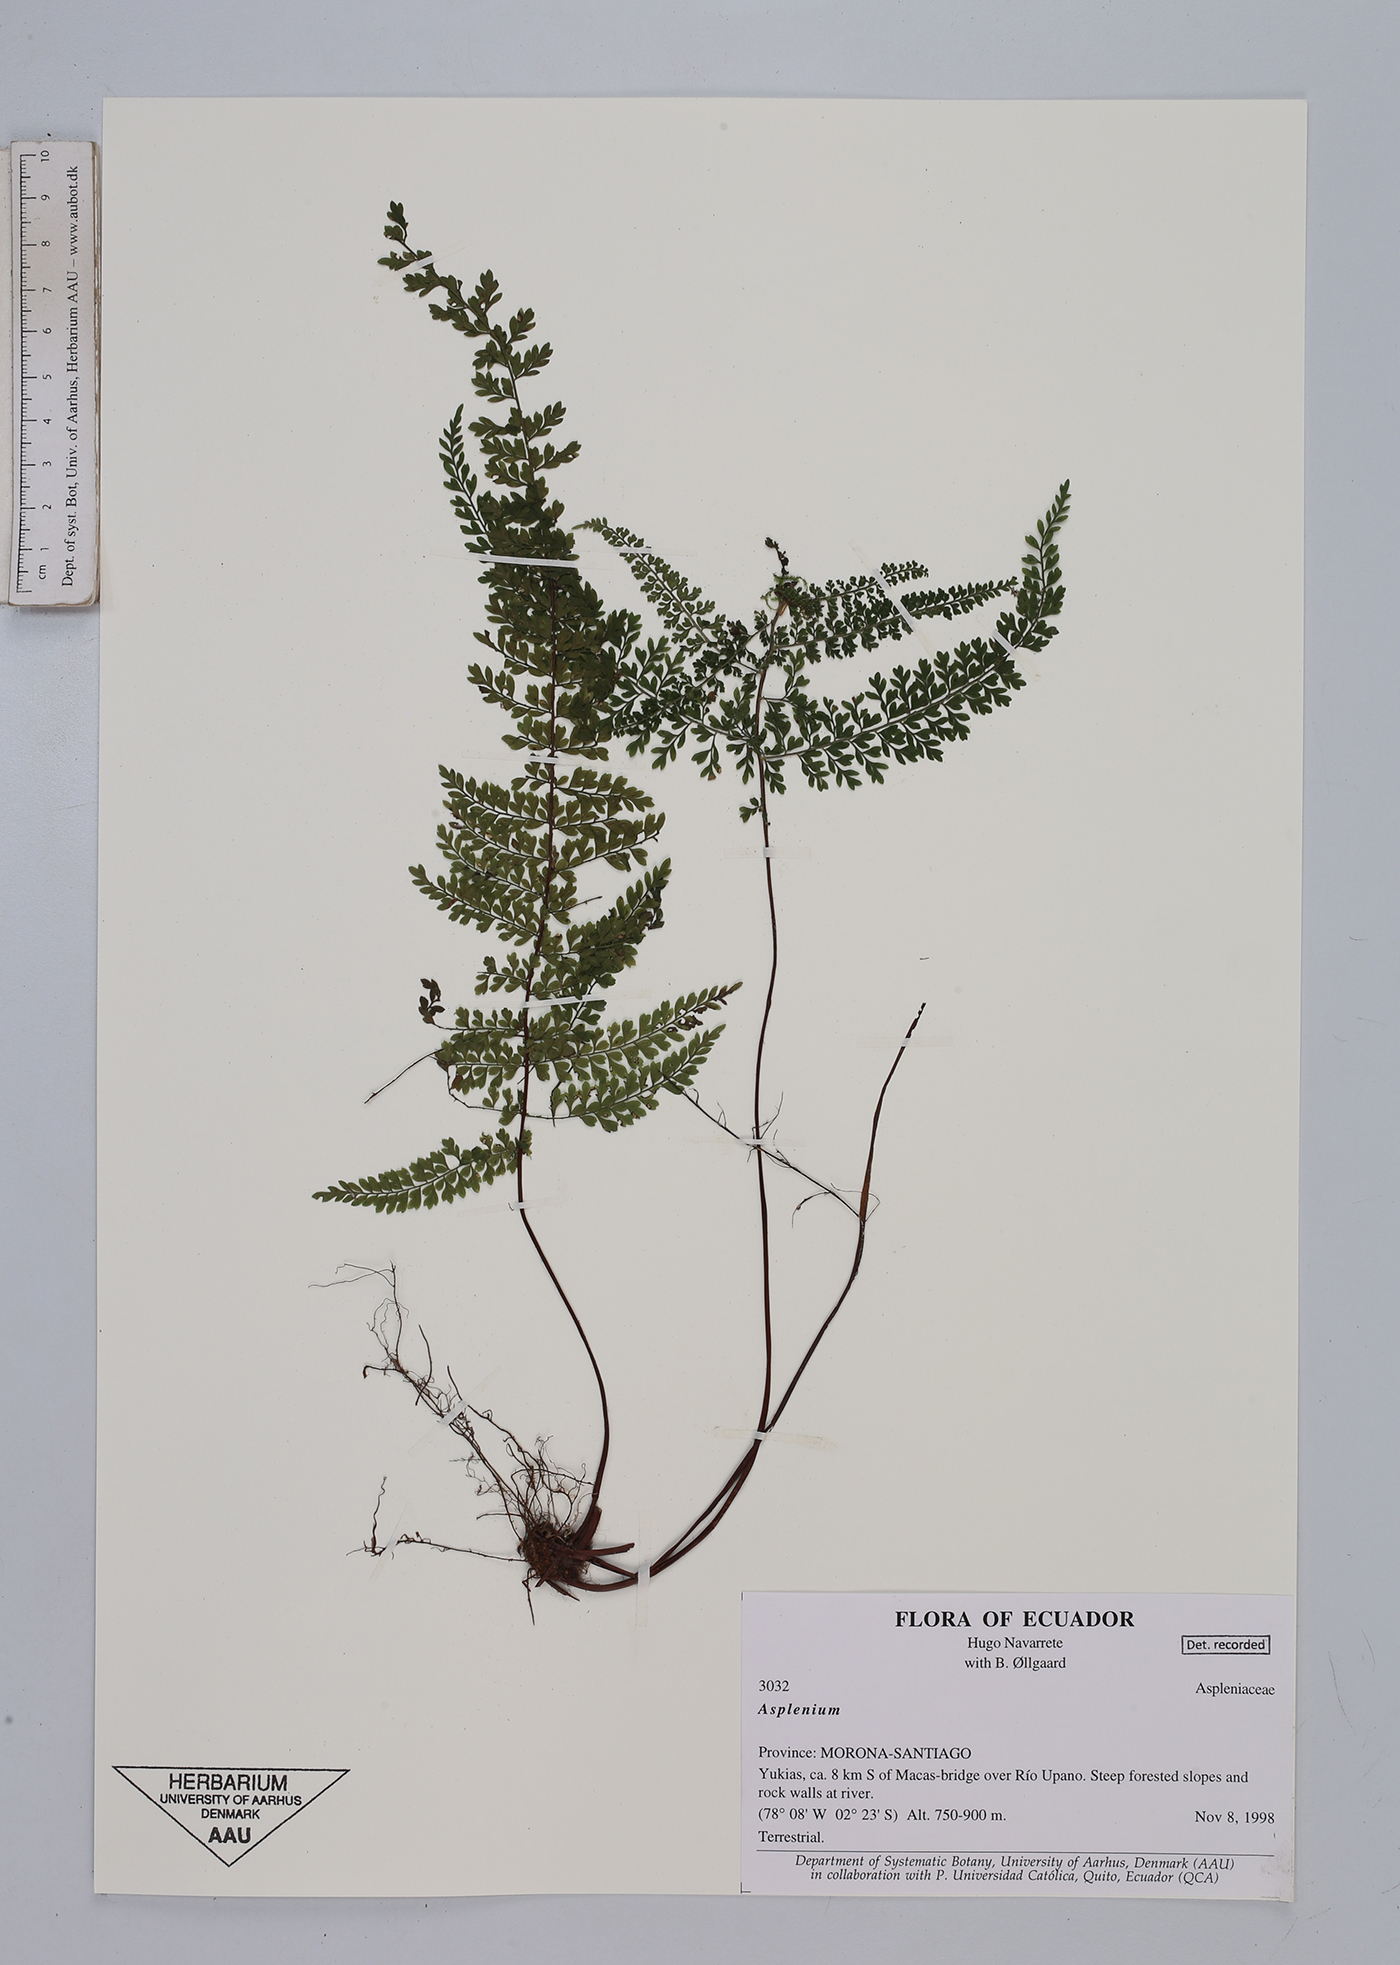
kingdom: Plantae
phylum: Tracheophyta
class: Polypodiopsida
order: Polypodiales
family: Aspleniaceae
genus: Asplenium
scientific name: Asplenium
